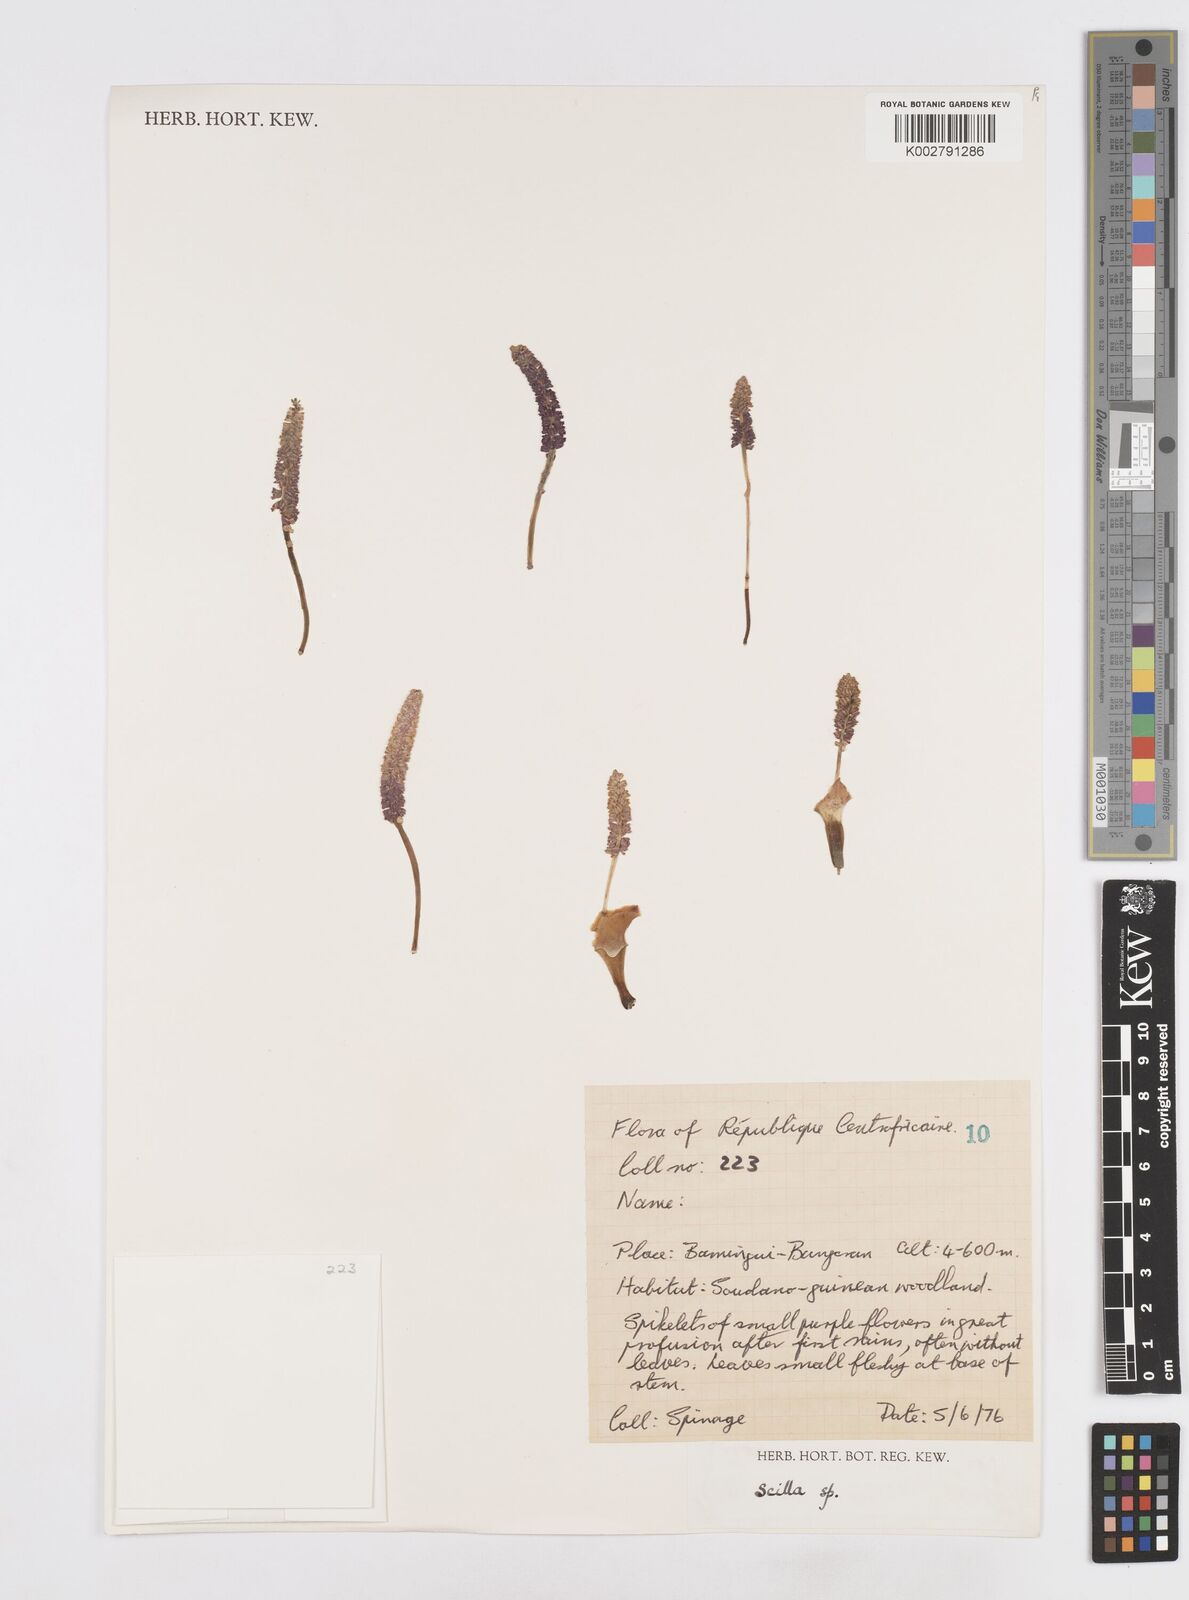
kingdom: Plantae
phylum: Tracheophyta
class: Liliopsida
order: Asparagales
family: Asparagaceae
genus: Scilla
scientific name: Scilla
